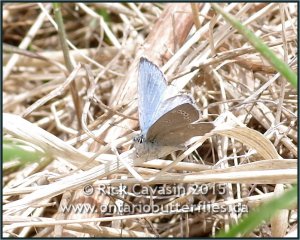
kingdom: Animalia
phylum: Arthropoda
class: Insecta
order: Lepidoptera
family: Lycaenidae
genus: Glaucopsyche
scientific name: Glaucopsyche lygdamus
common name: Silvery Blue
